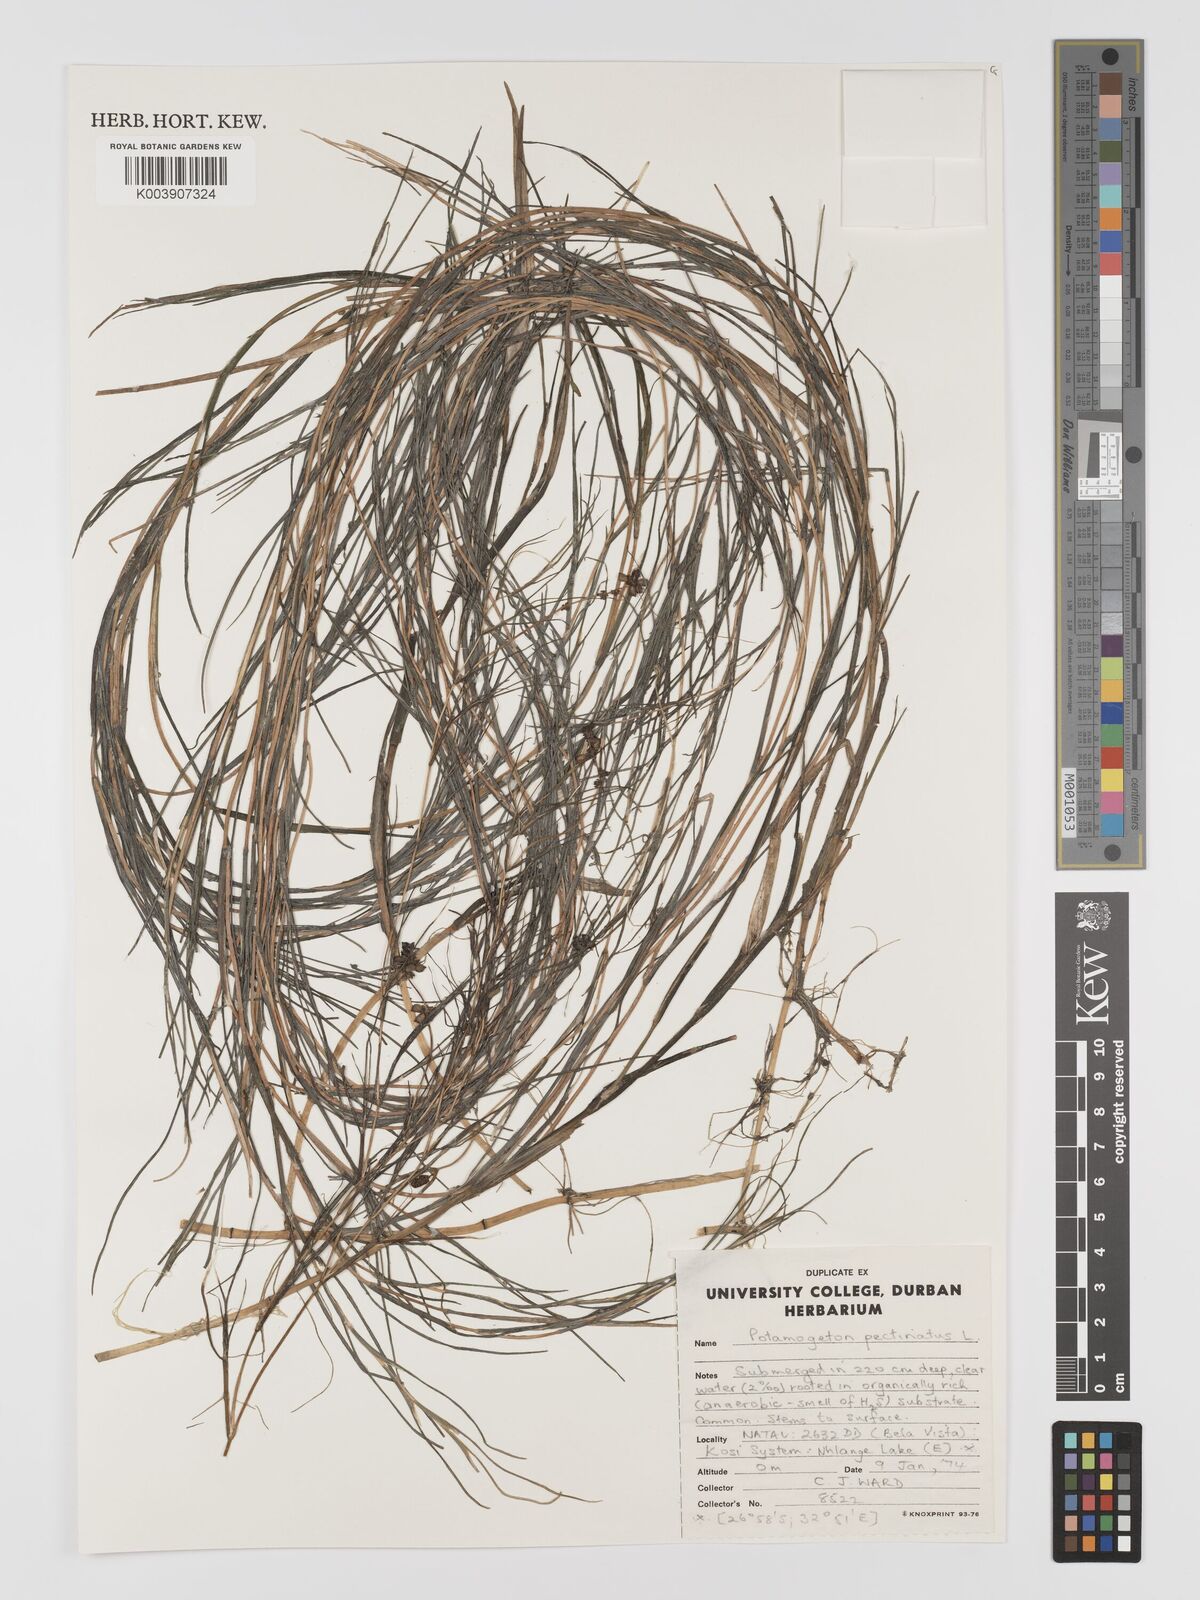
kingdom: Plantae
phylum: Tracheophyta
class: Liliopsida
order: Alismatales
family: Potamogetonaceae
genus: Stuckenia
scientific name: Stuckenia pectinata
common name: Sago pondweed
